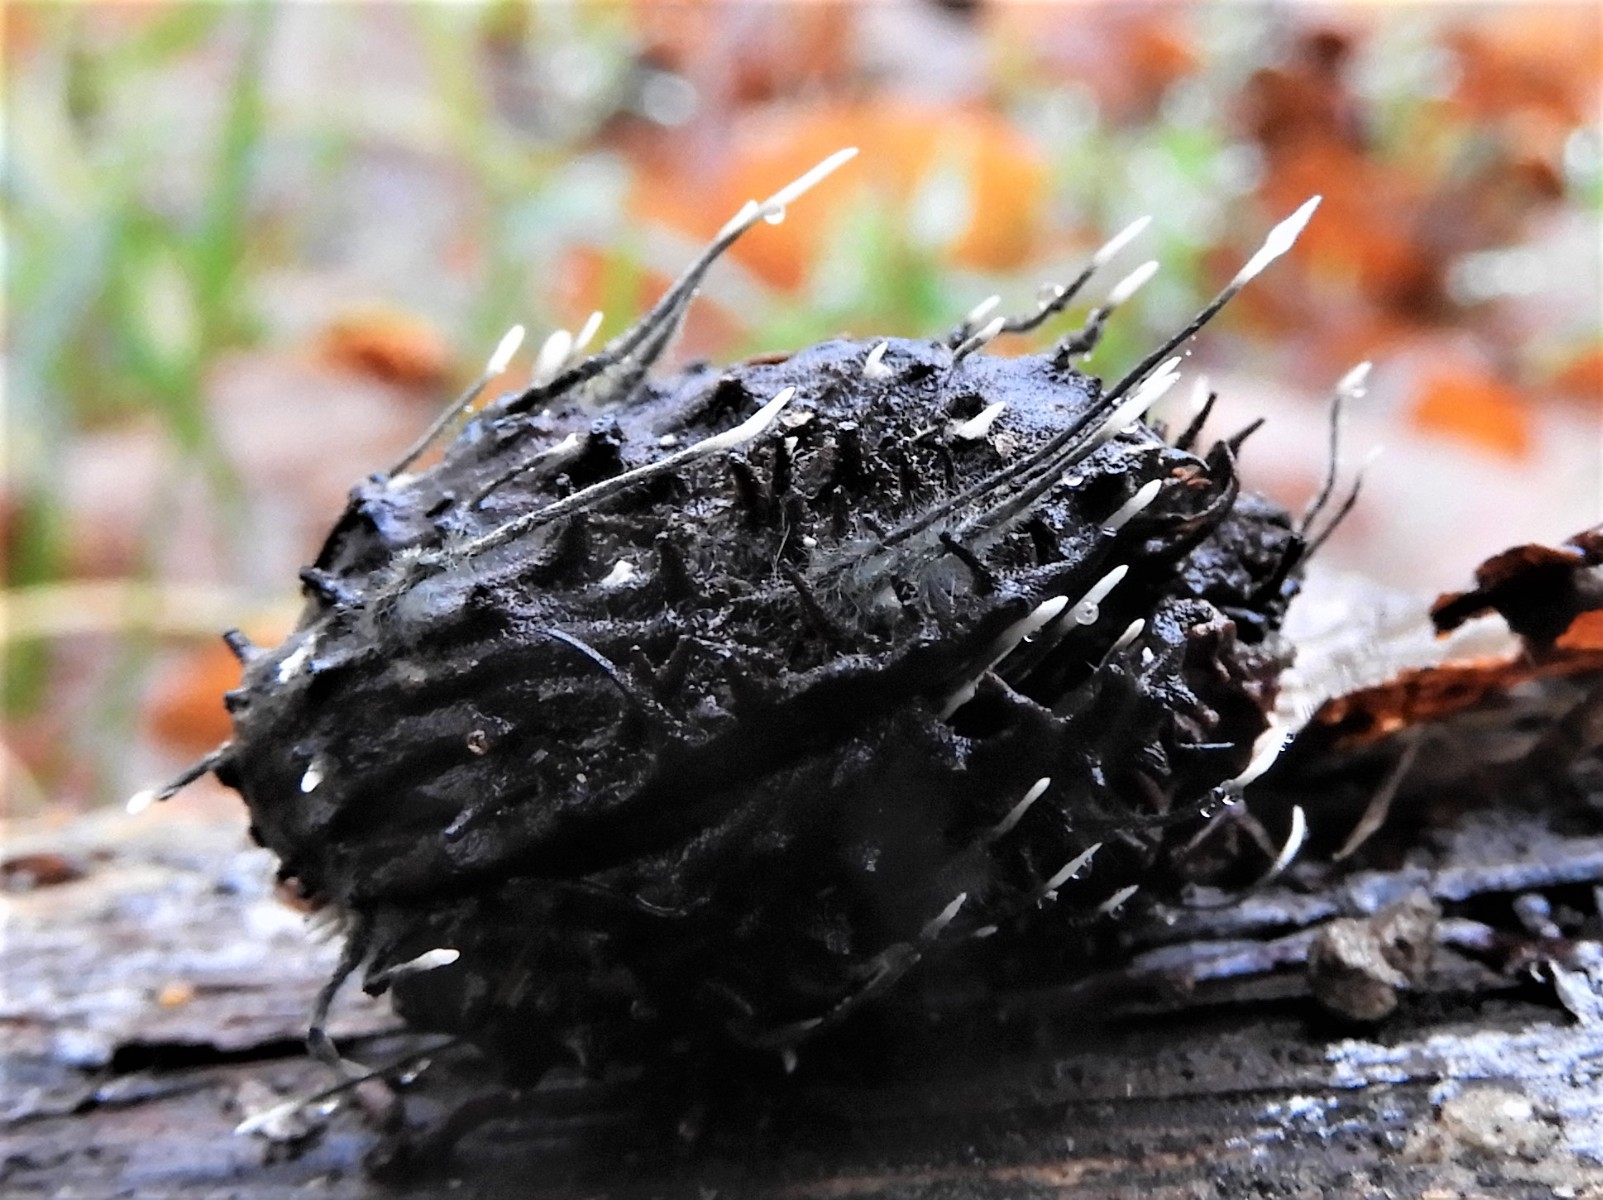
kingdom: Fungi
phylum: Ascomycota
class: Sordariomycetes
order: Xylariales
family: Xylariaceae
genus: Xylaria
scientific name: Xylaria carpophila
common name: bogskål-stødsvamp
